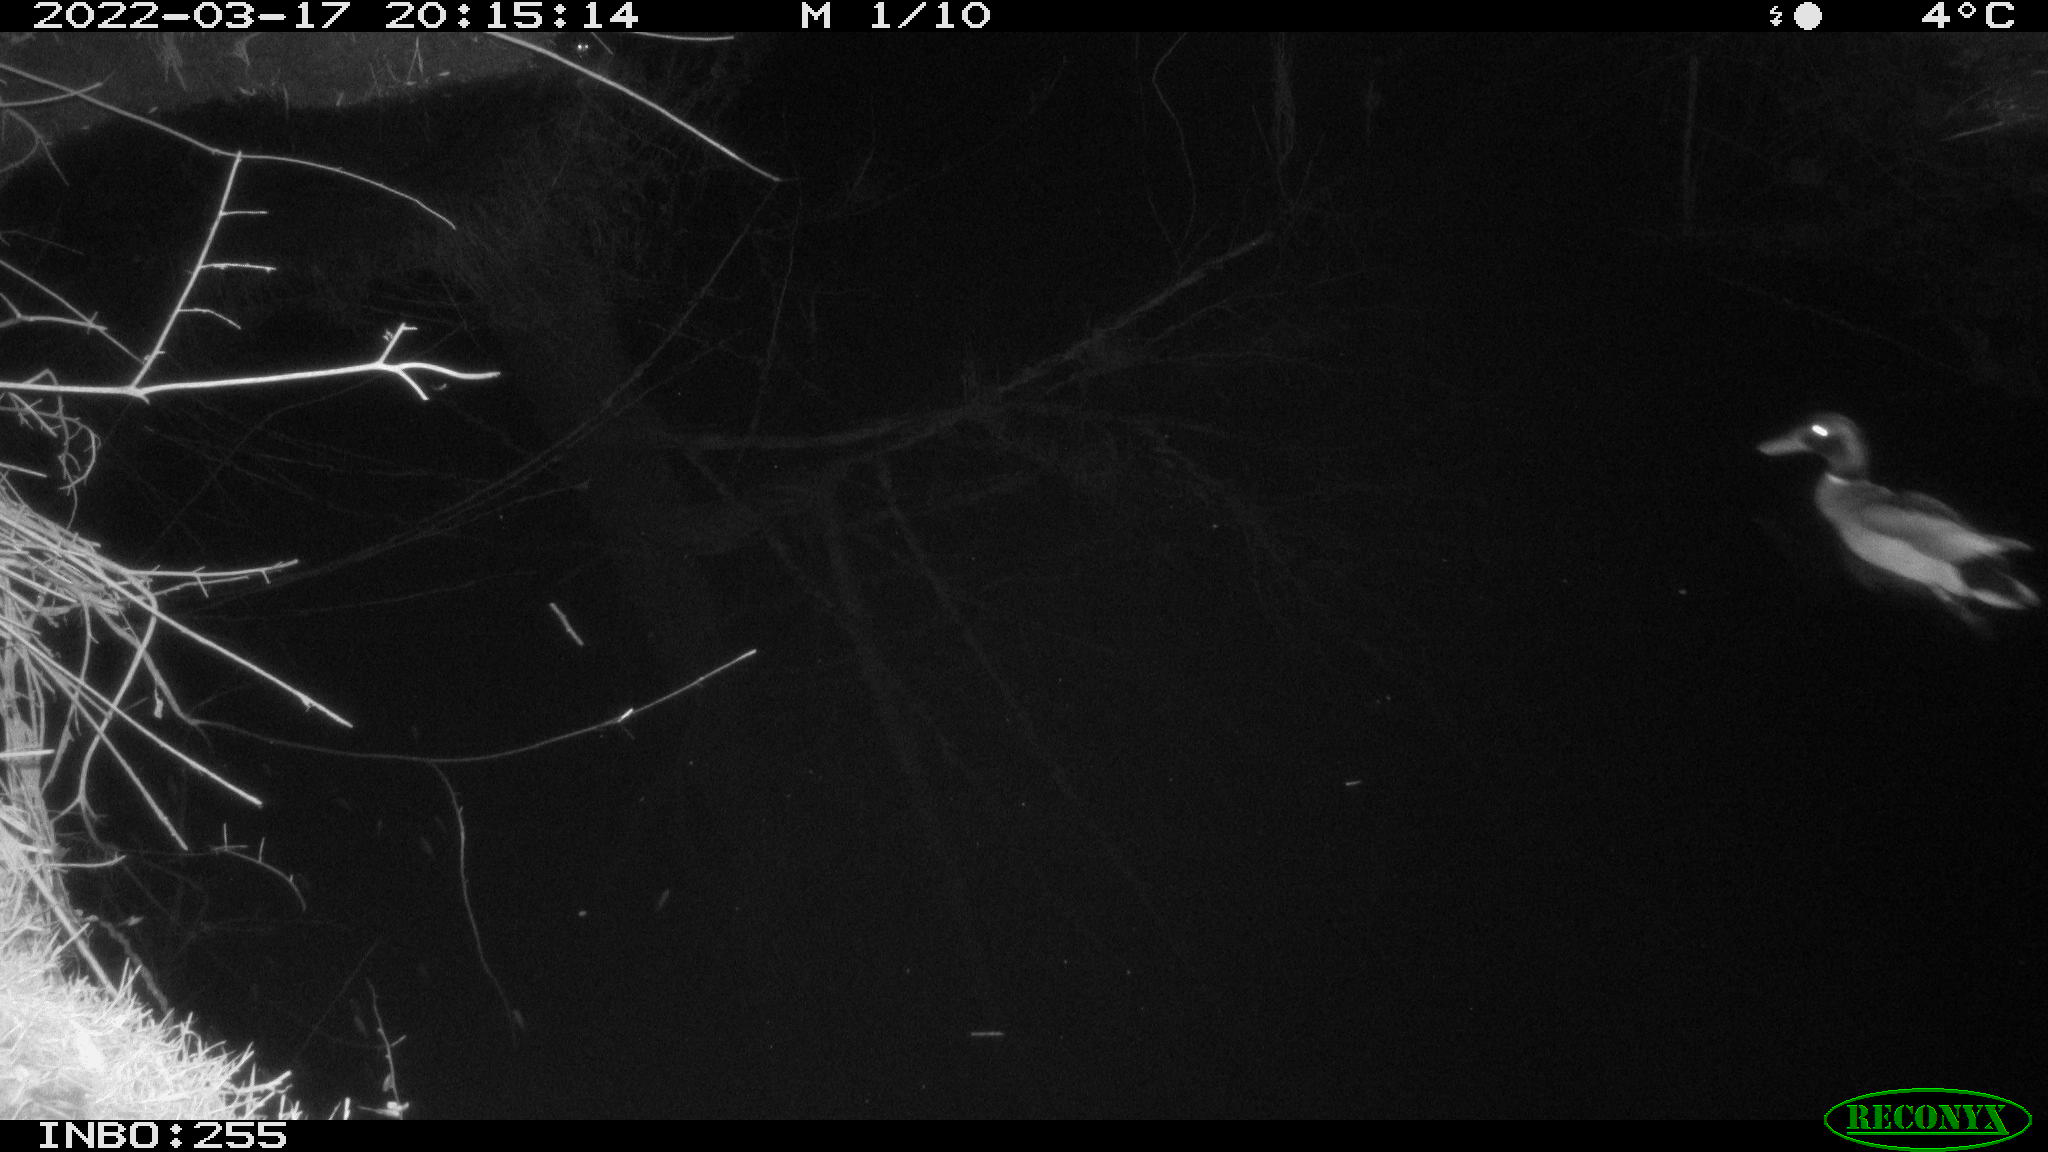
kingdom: Animalia
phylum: Chordata
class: Aves
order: Anseriformes
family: Anatidae
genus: Anas
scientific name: Anas platyrhynchos
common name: Mallard
